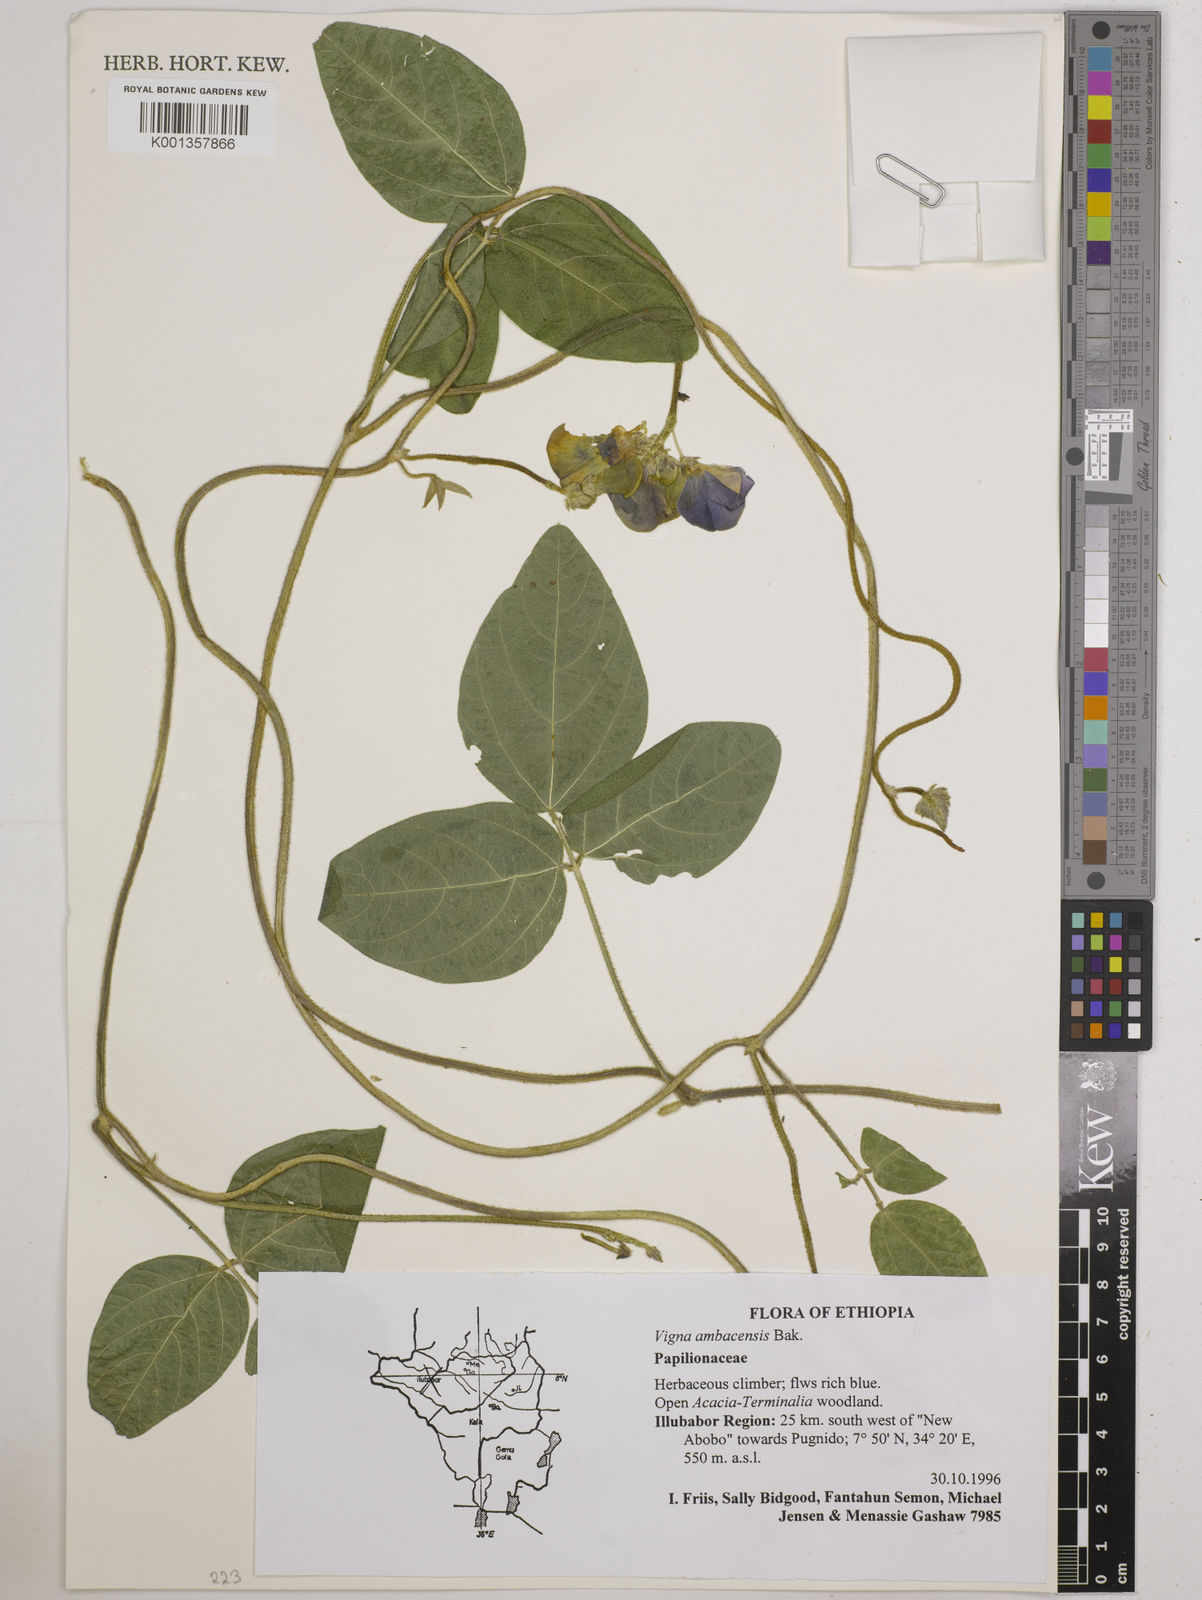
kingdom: Plantae
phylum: Tracheophyta
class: Magnoliopsida
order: Fabales
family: Fabaceae
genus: Vigna
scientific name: Vigna ambacensis
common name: Tsarkiyan zomo
